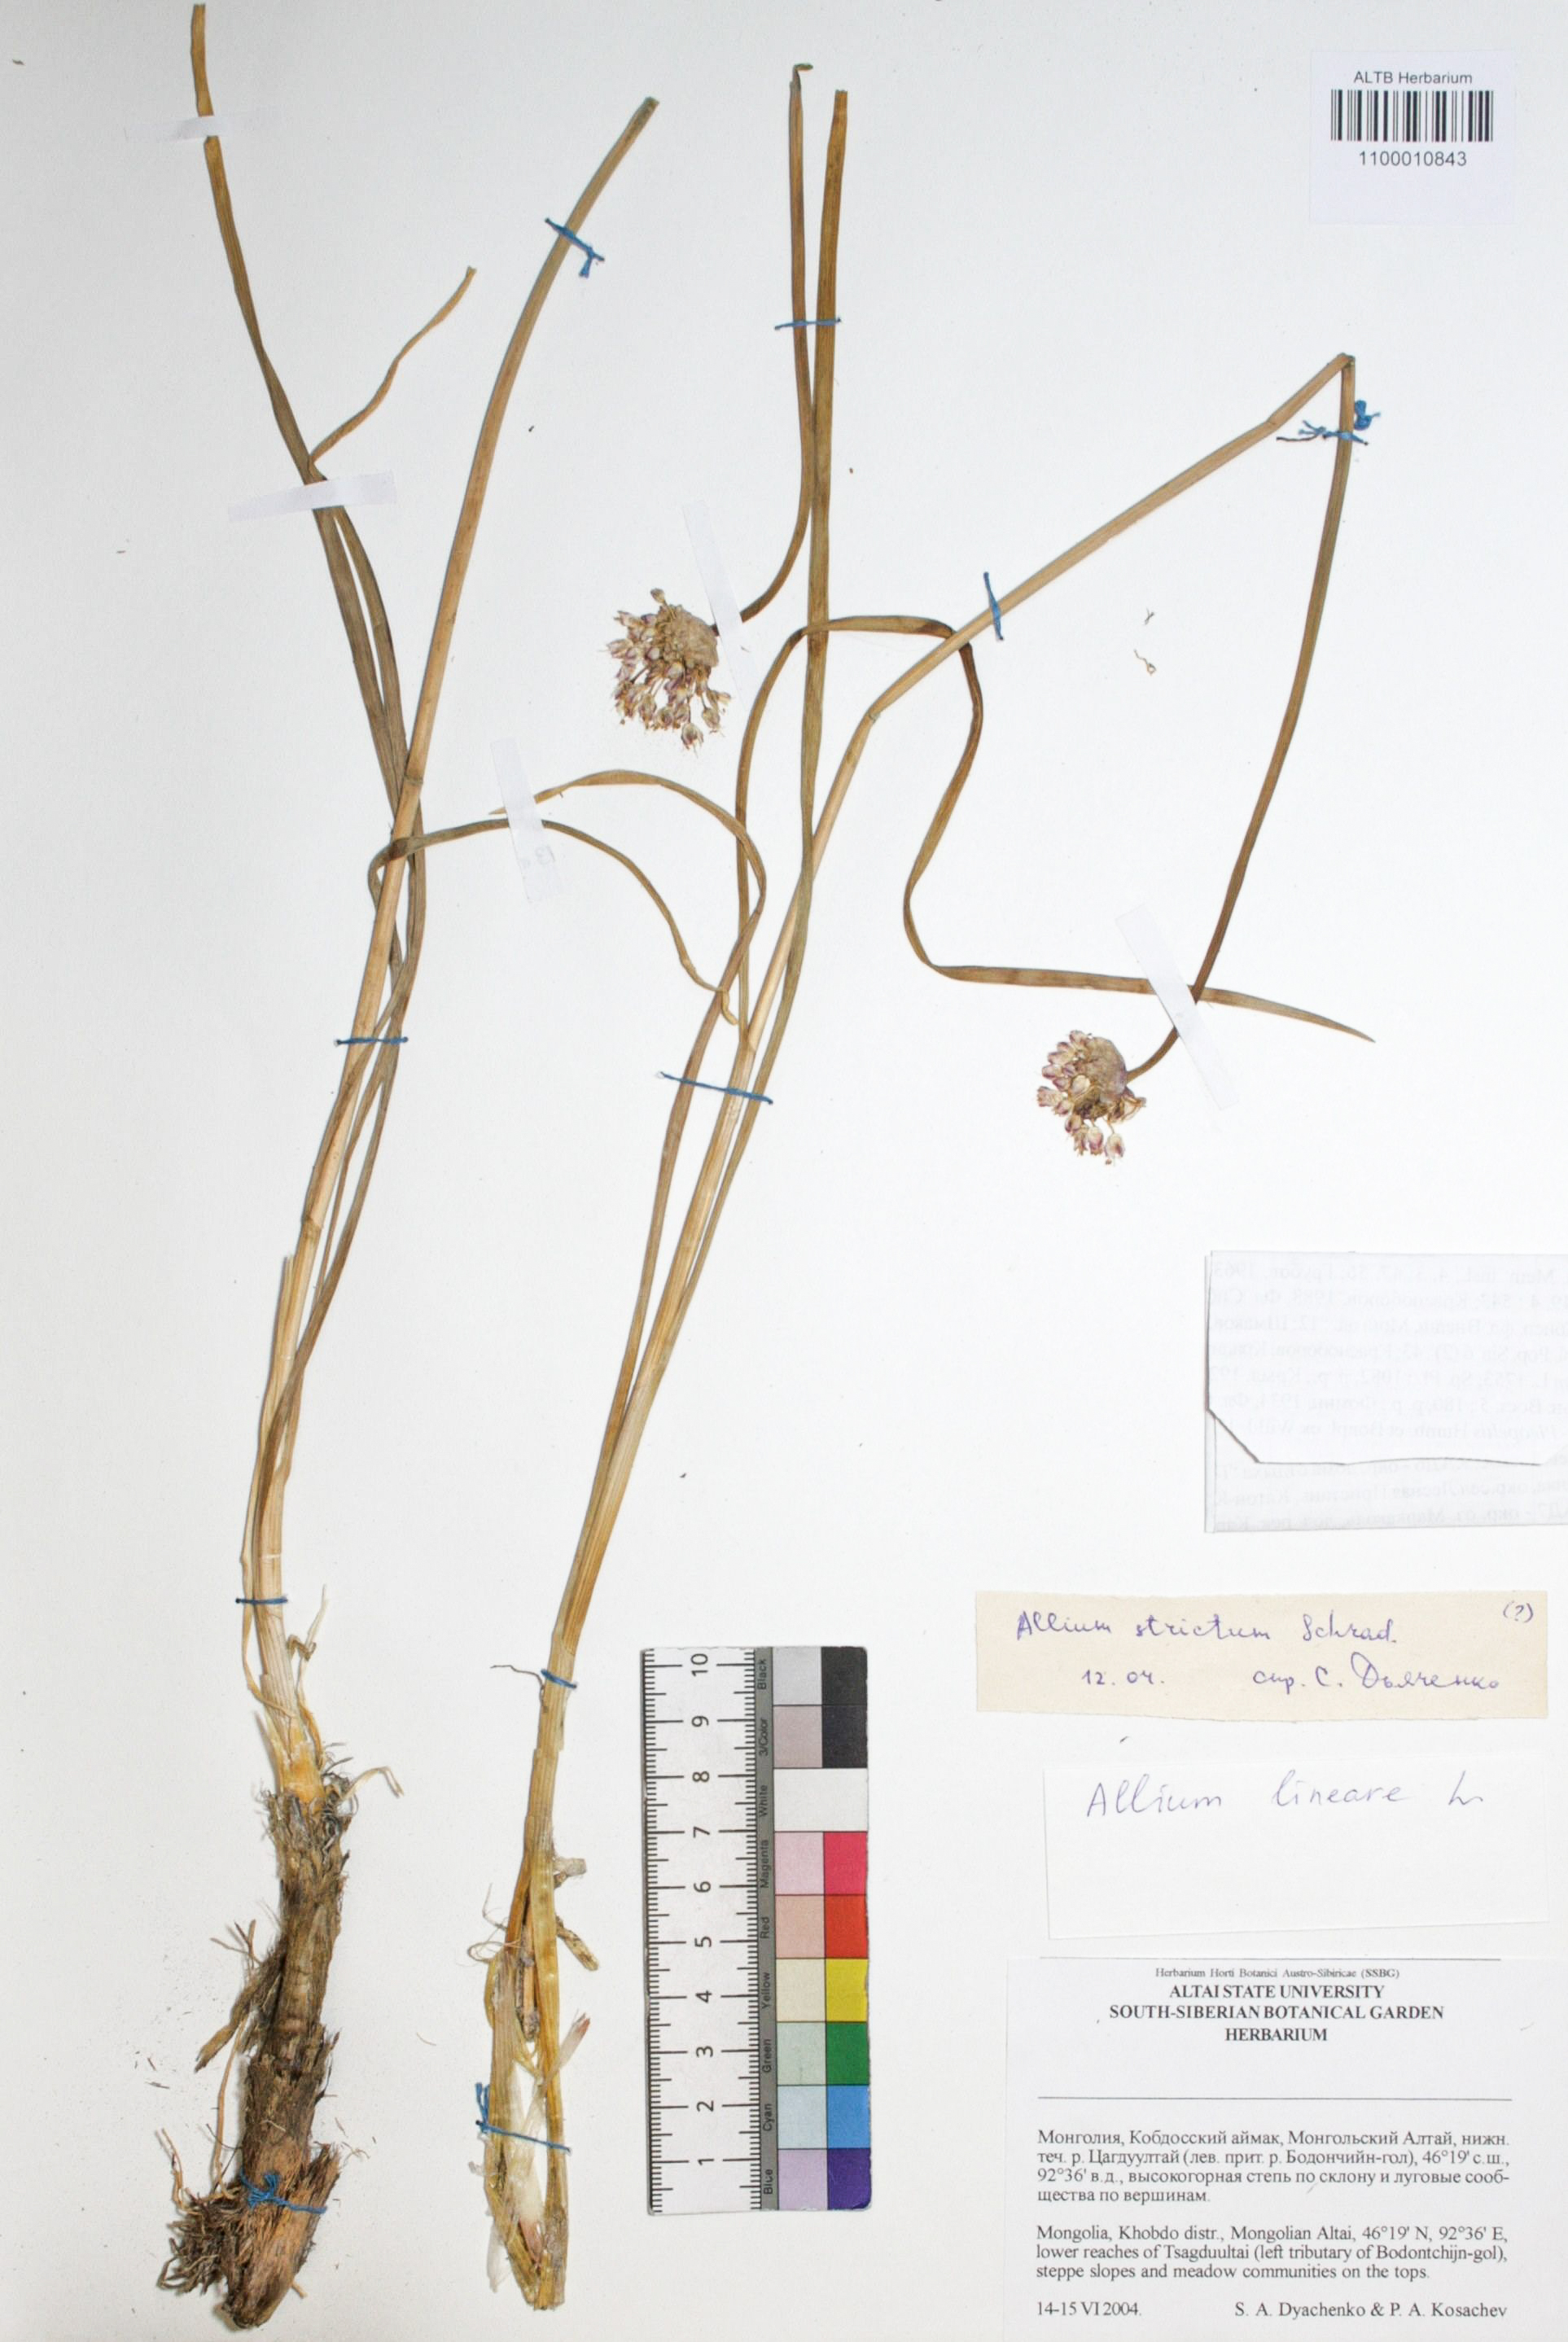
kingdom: Plantae
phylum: Tracheophyta
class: Liliopsida
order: Asparagales
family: Amaryllidaceae
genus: Allium
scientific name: Allium lineare
